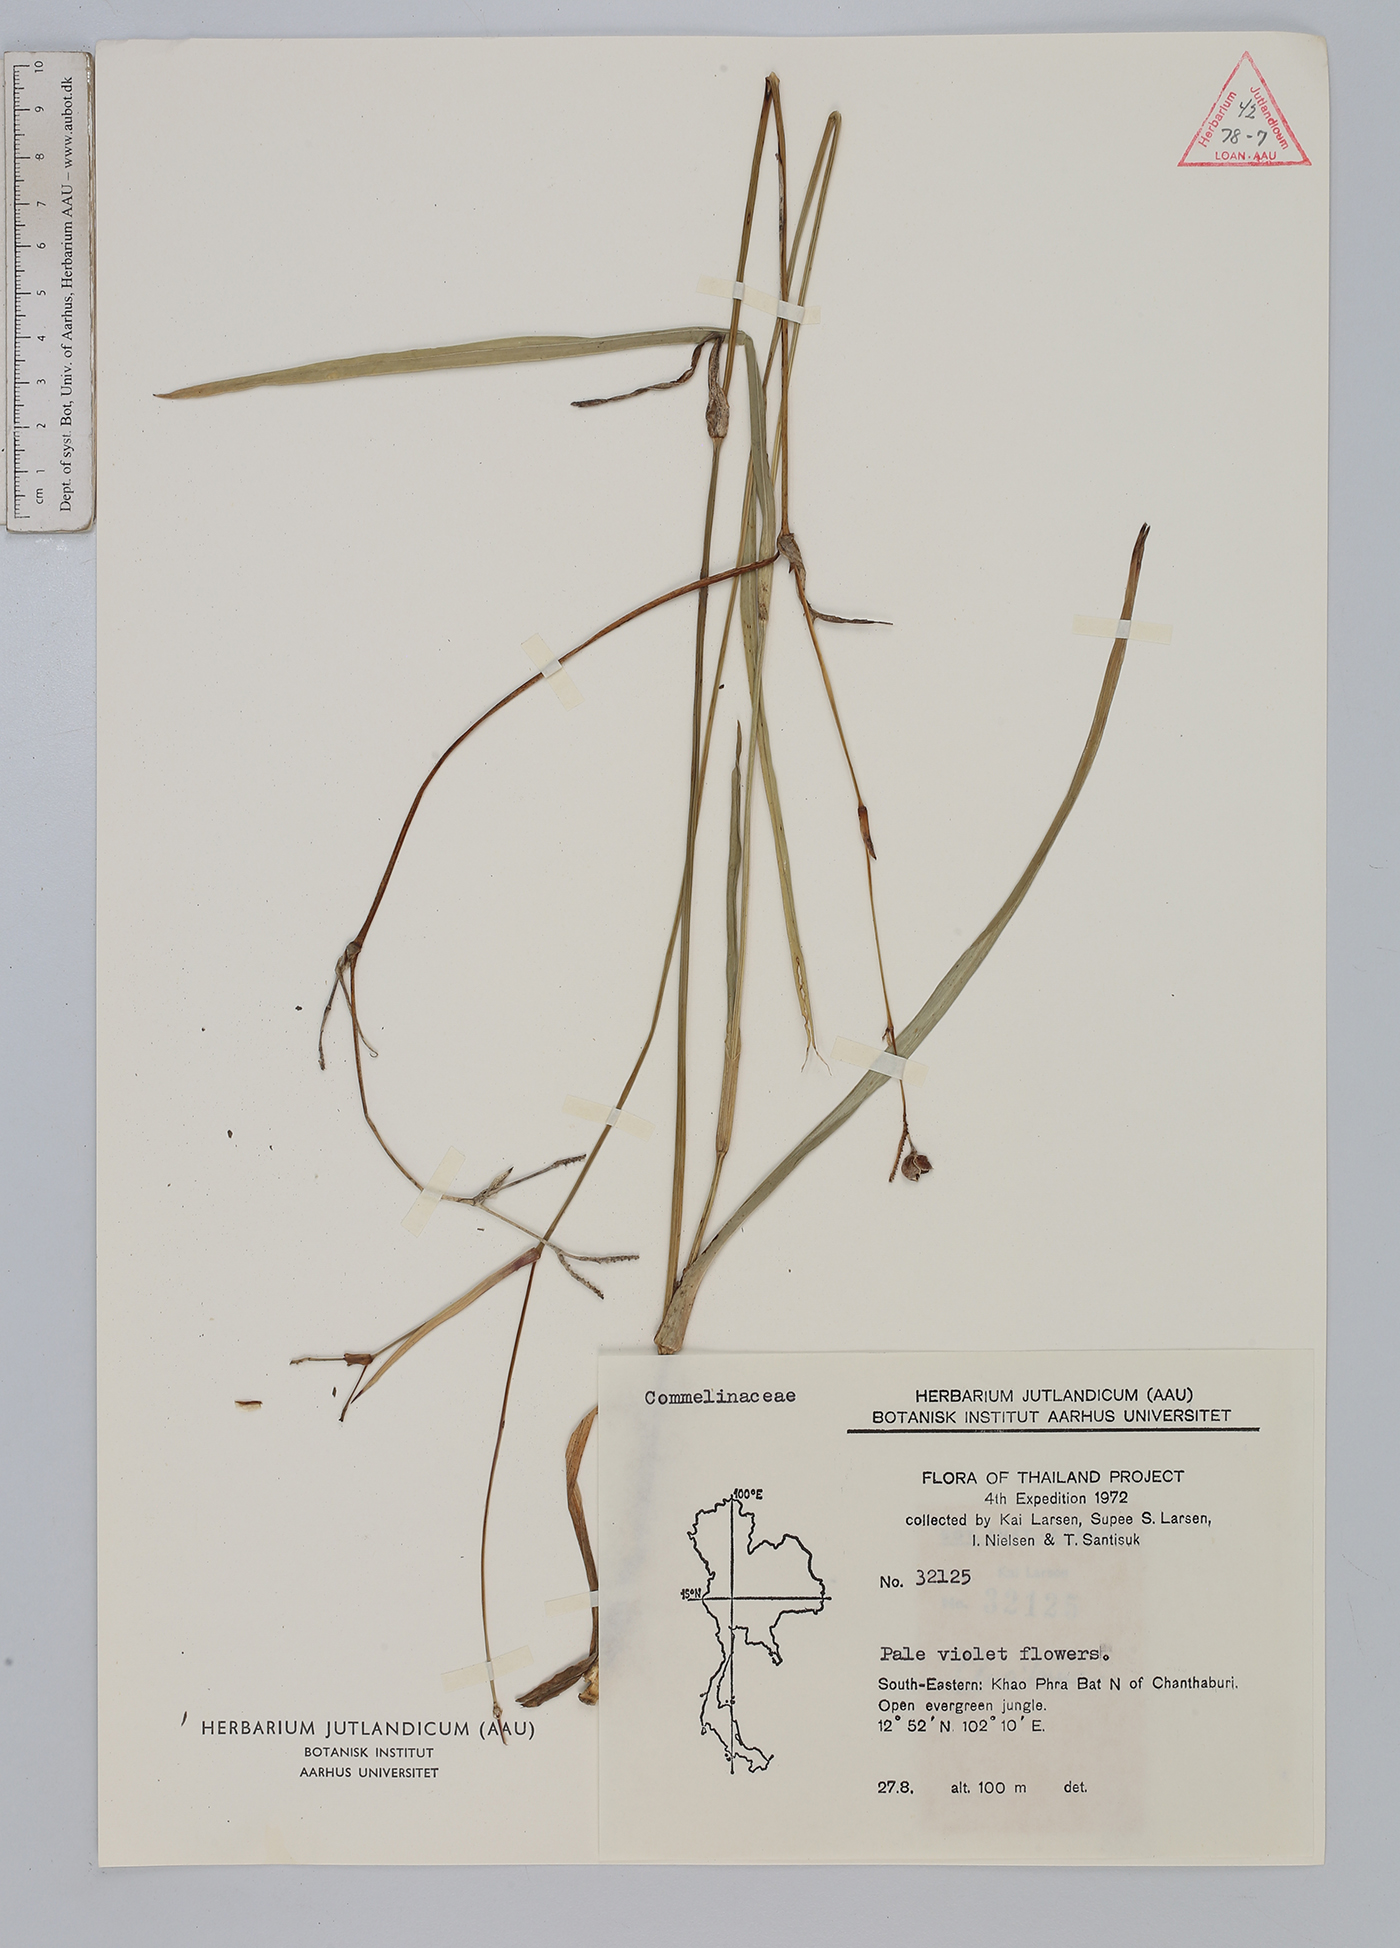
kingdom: Plantae
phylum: Tracheophyta
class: Liliopsida
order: Commelinales
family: Commelinaceae
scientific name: Commelinaceae
